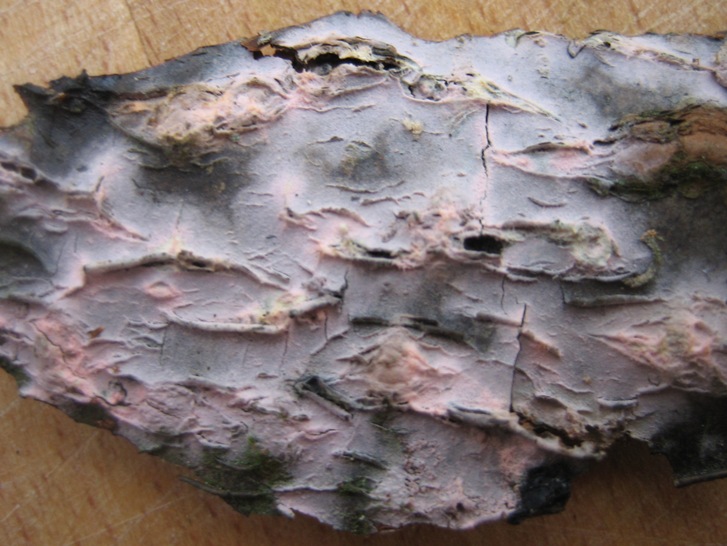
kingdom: Fungi
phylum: Basidiomycota
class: Agaricomycetes
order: Cantharellales
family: Tulasnellaceae
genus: Tulasnella
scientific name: Tulasnella violea
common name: violet ballonhinde
